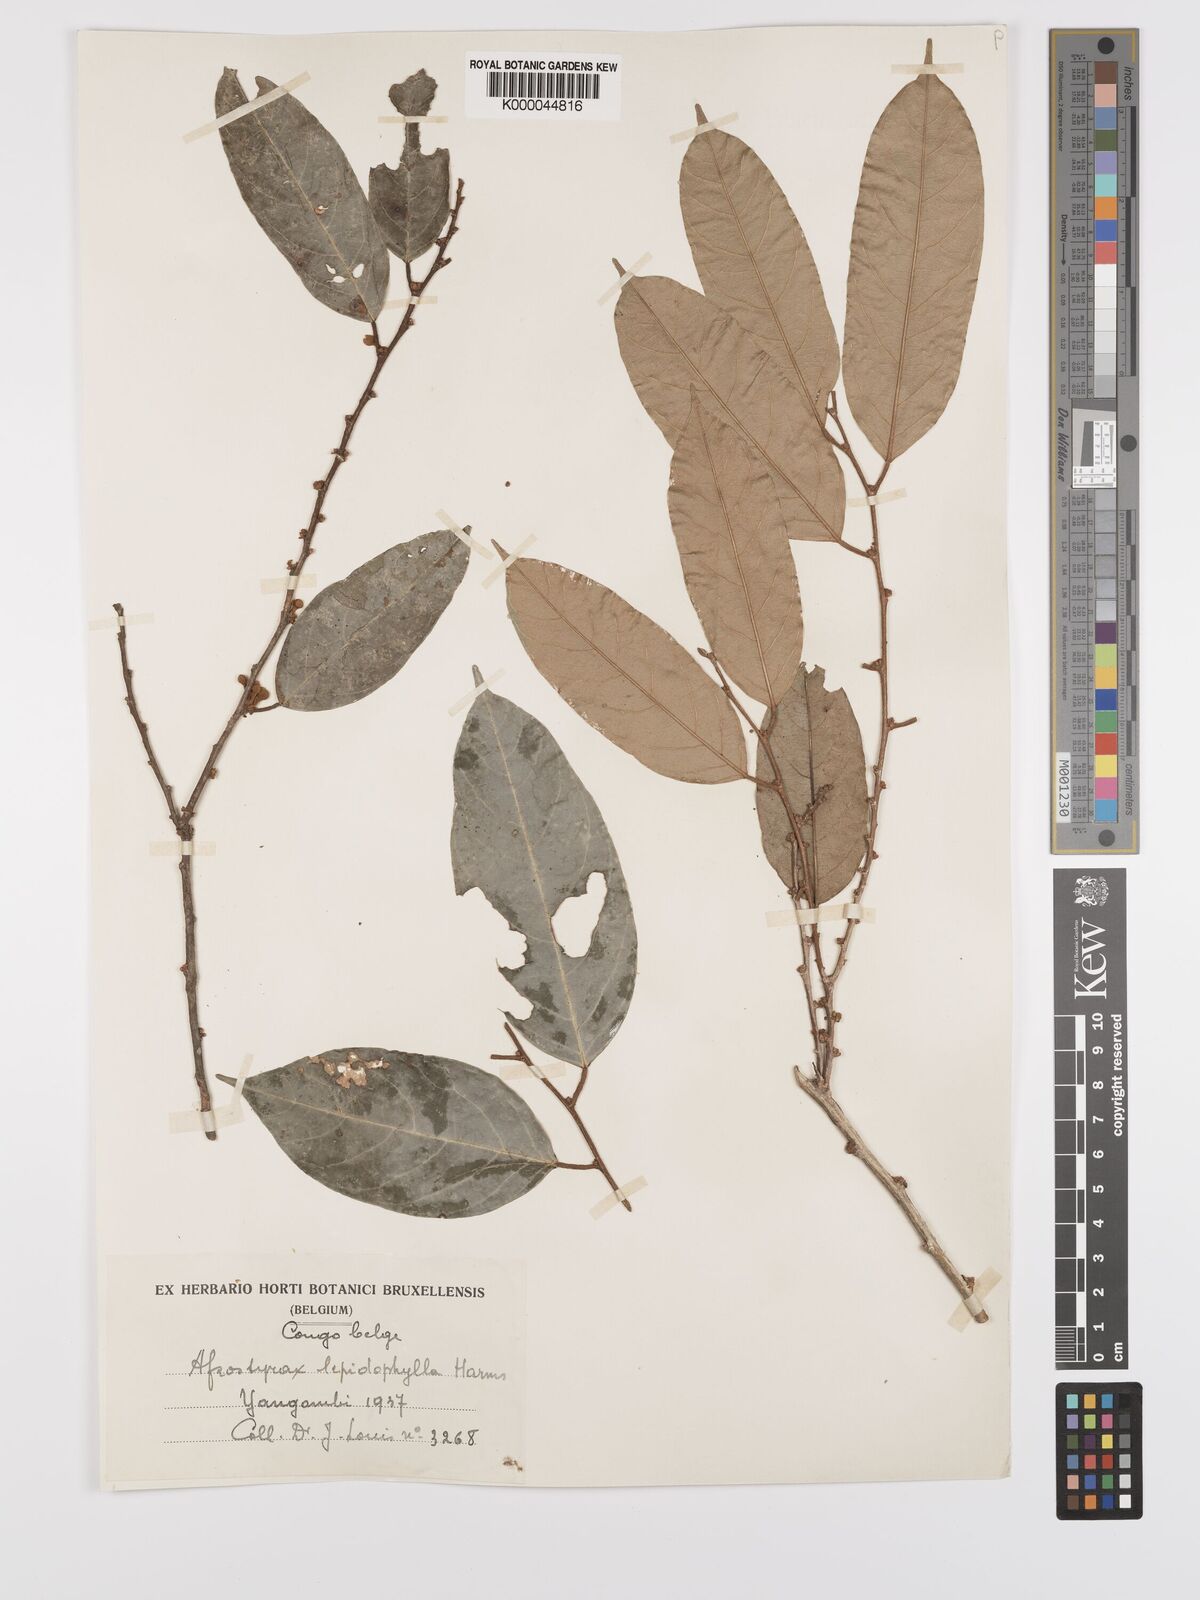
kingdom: Plantae
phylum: Tracheophyta
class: Magnoliopsida
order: Oxalidales
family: Huaceae
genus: Afrostyrax
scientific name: Afrostyrax lepidophyllus
